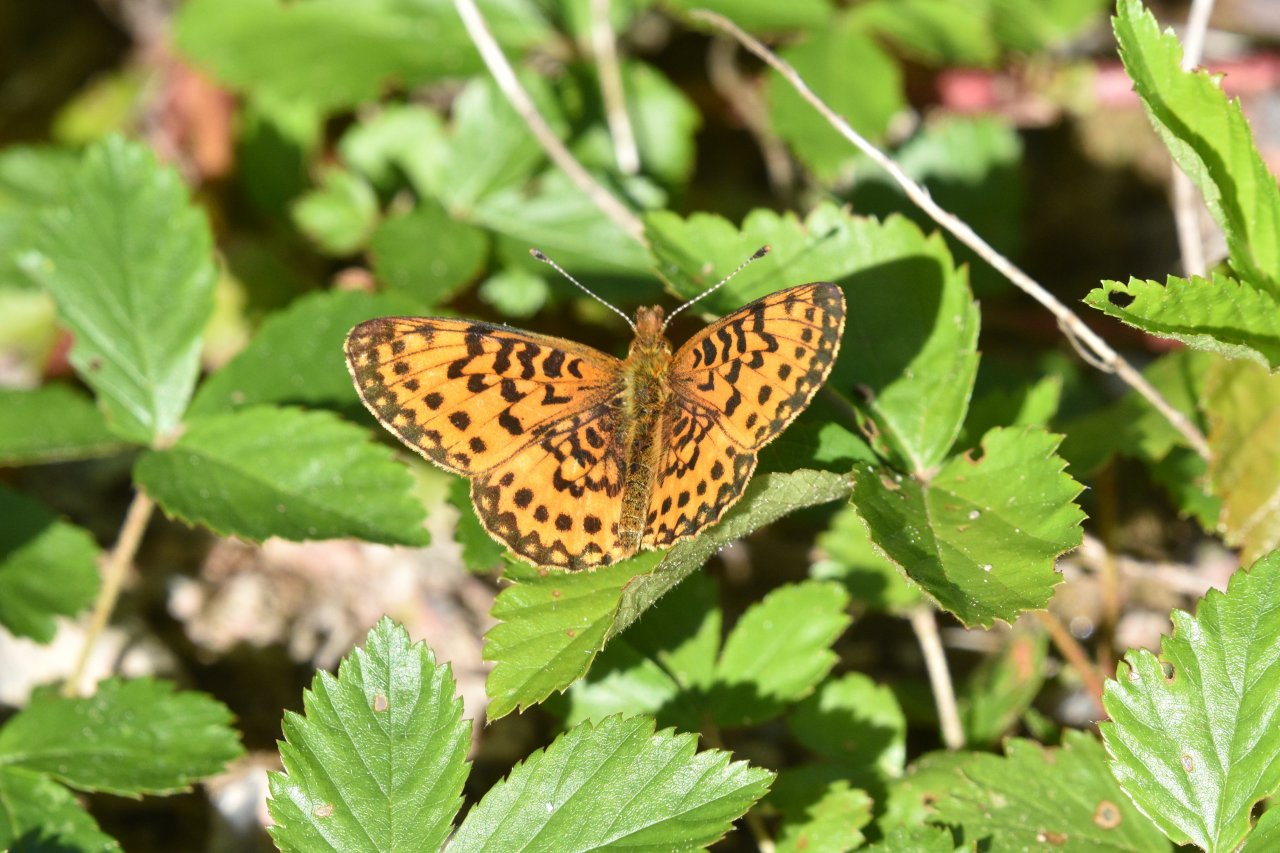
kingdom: Animalia
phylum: Arthropoda
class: Insecta
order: Lepidoptera
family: Nymphalidae
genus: Boloria
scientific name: Boloria selene
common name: Silver-bordered Fritillary
